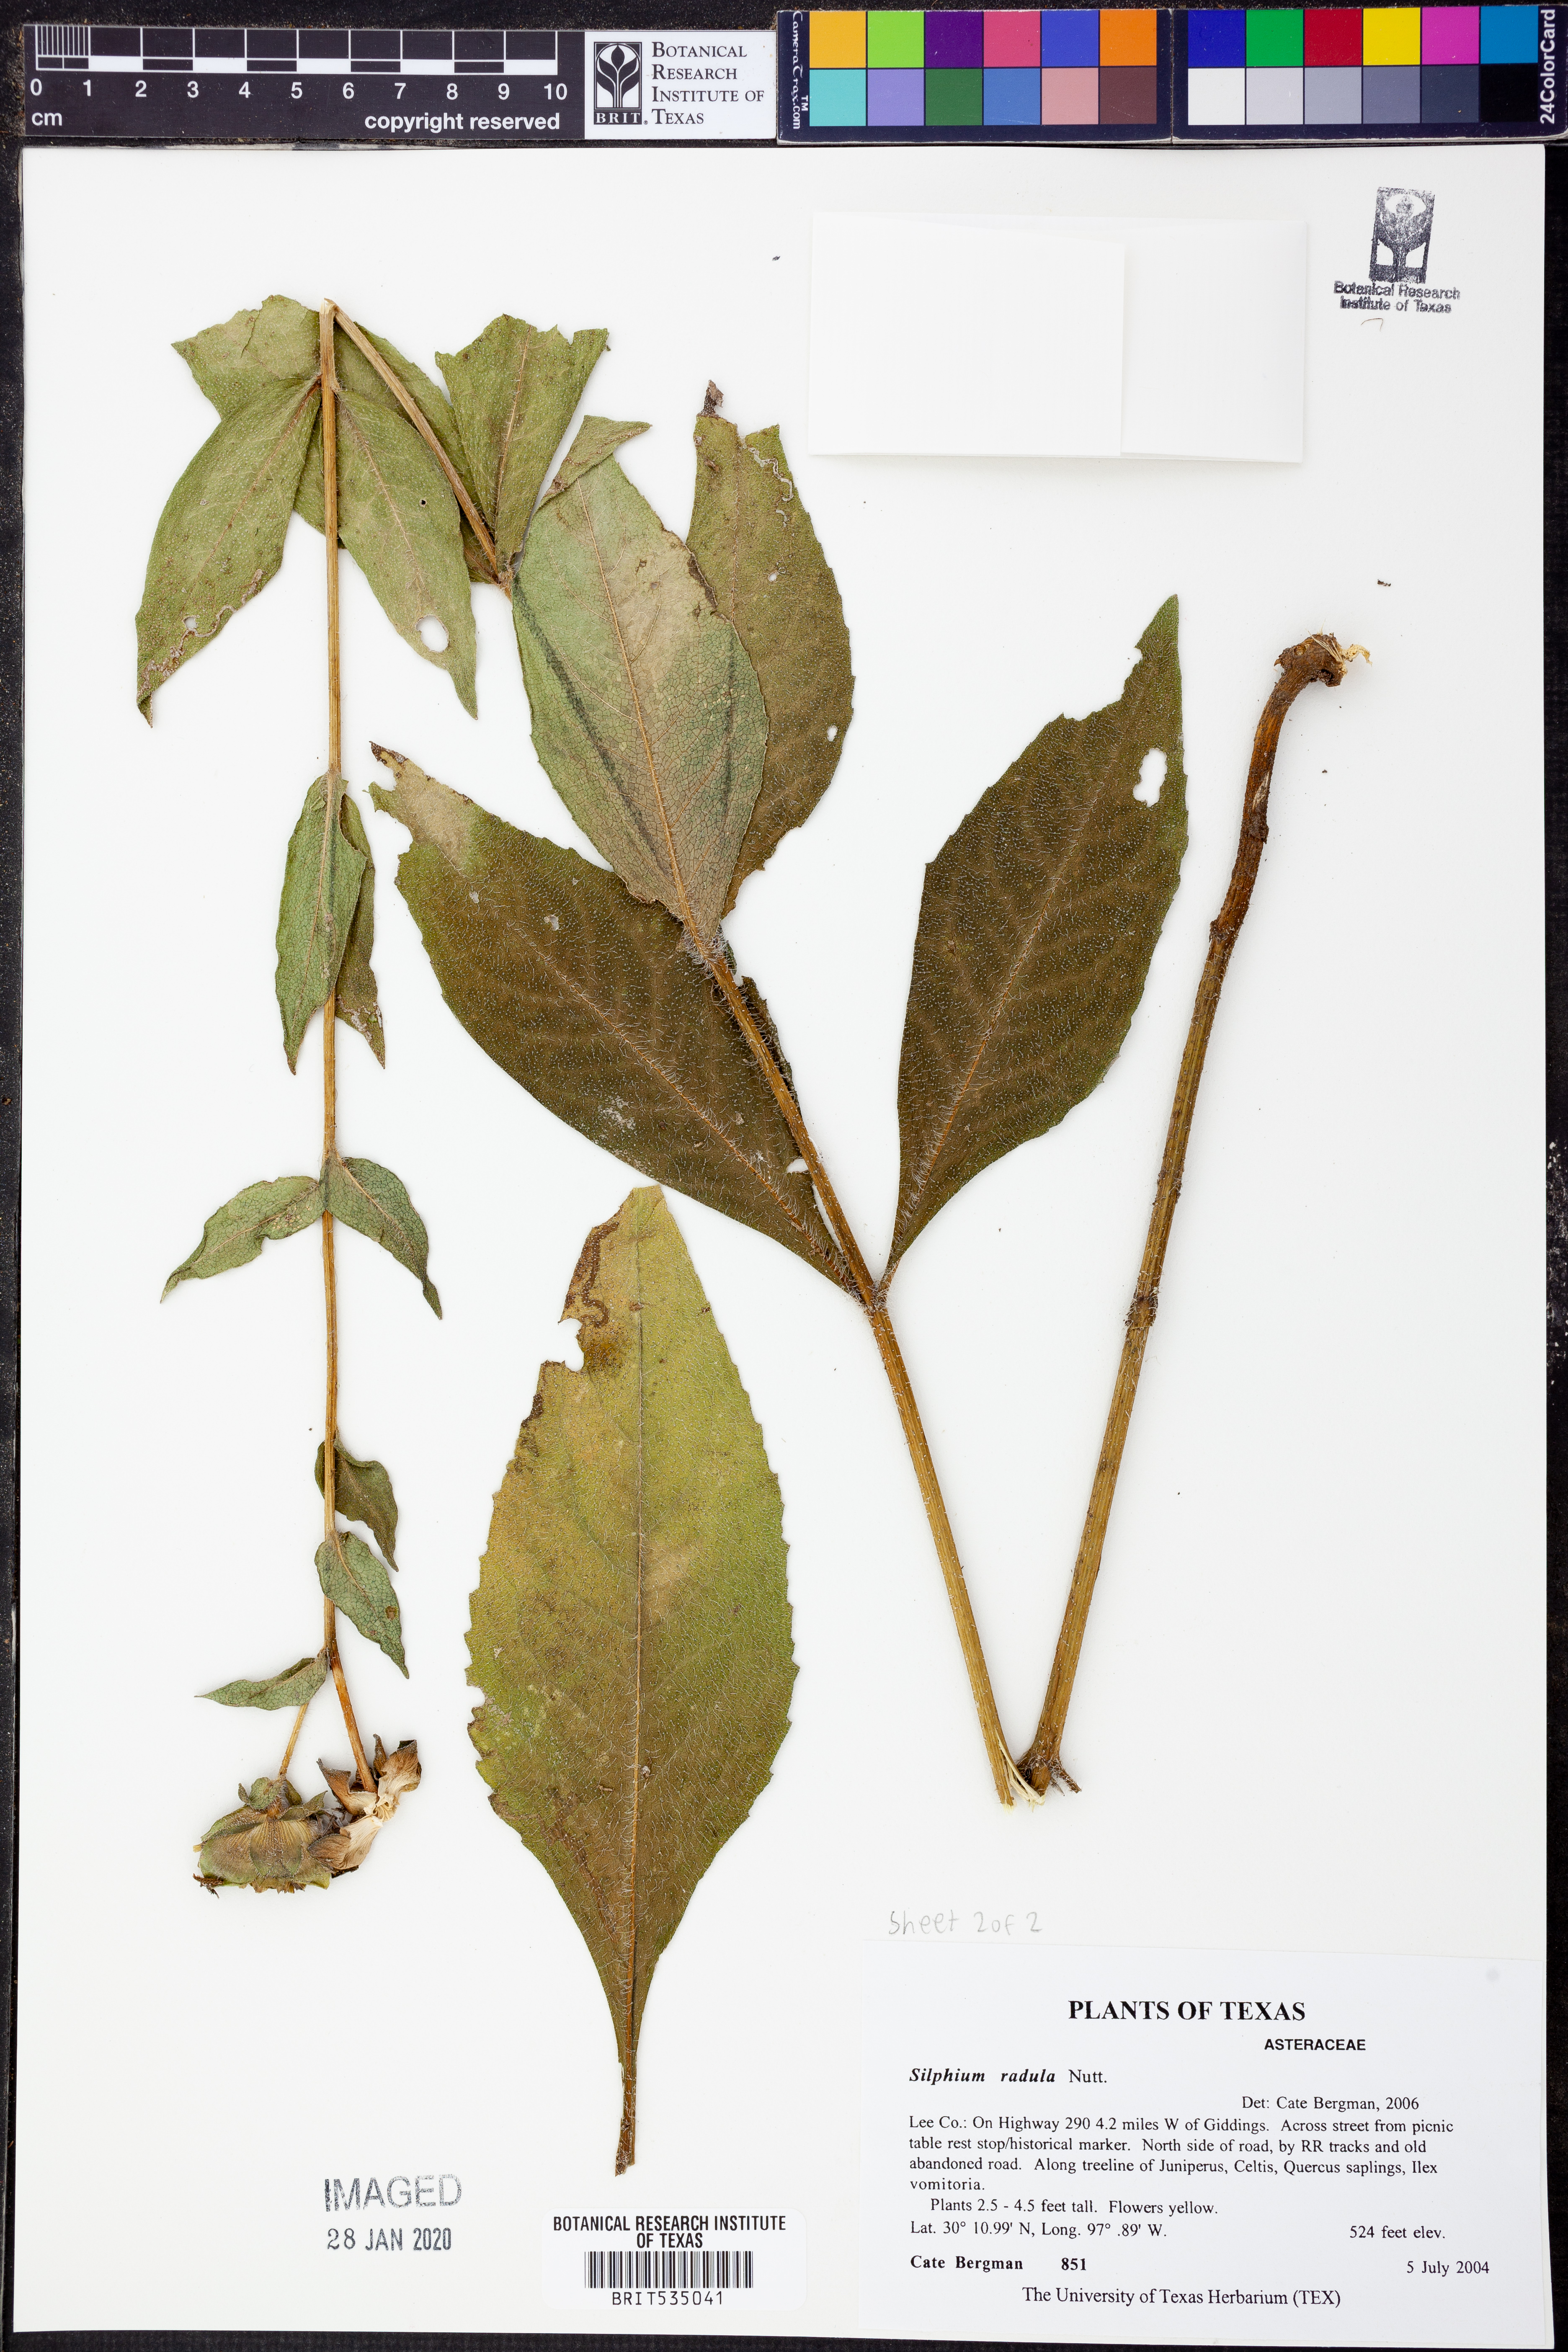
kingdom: Plantae
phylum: Tracheophyta
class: Magnoliopsida
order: Asterales
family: Asteraceae
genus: Silphium
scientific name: Silphium radula
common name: Roughleaf rosinweed
